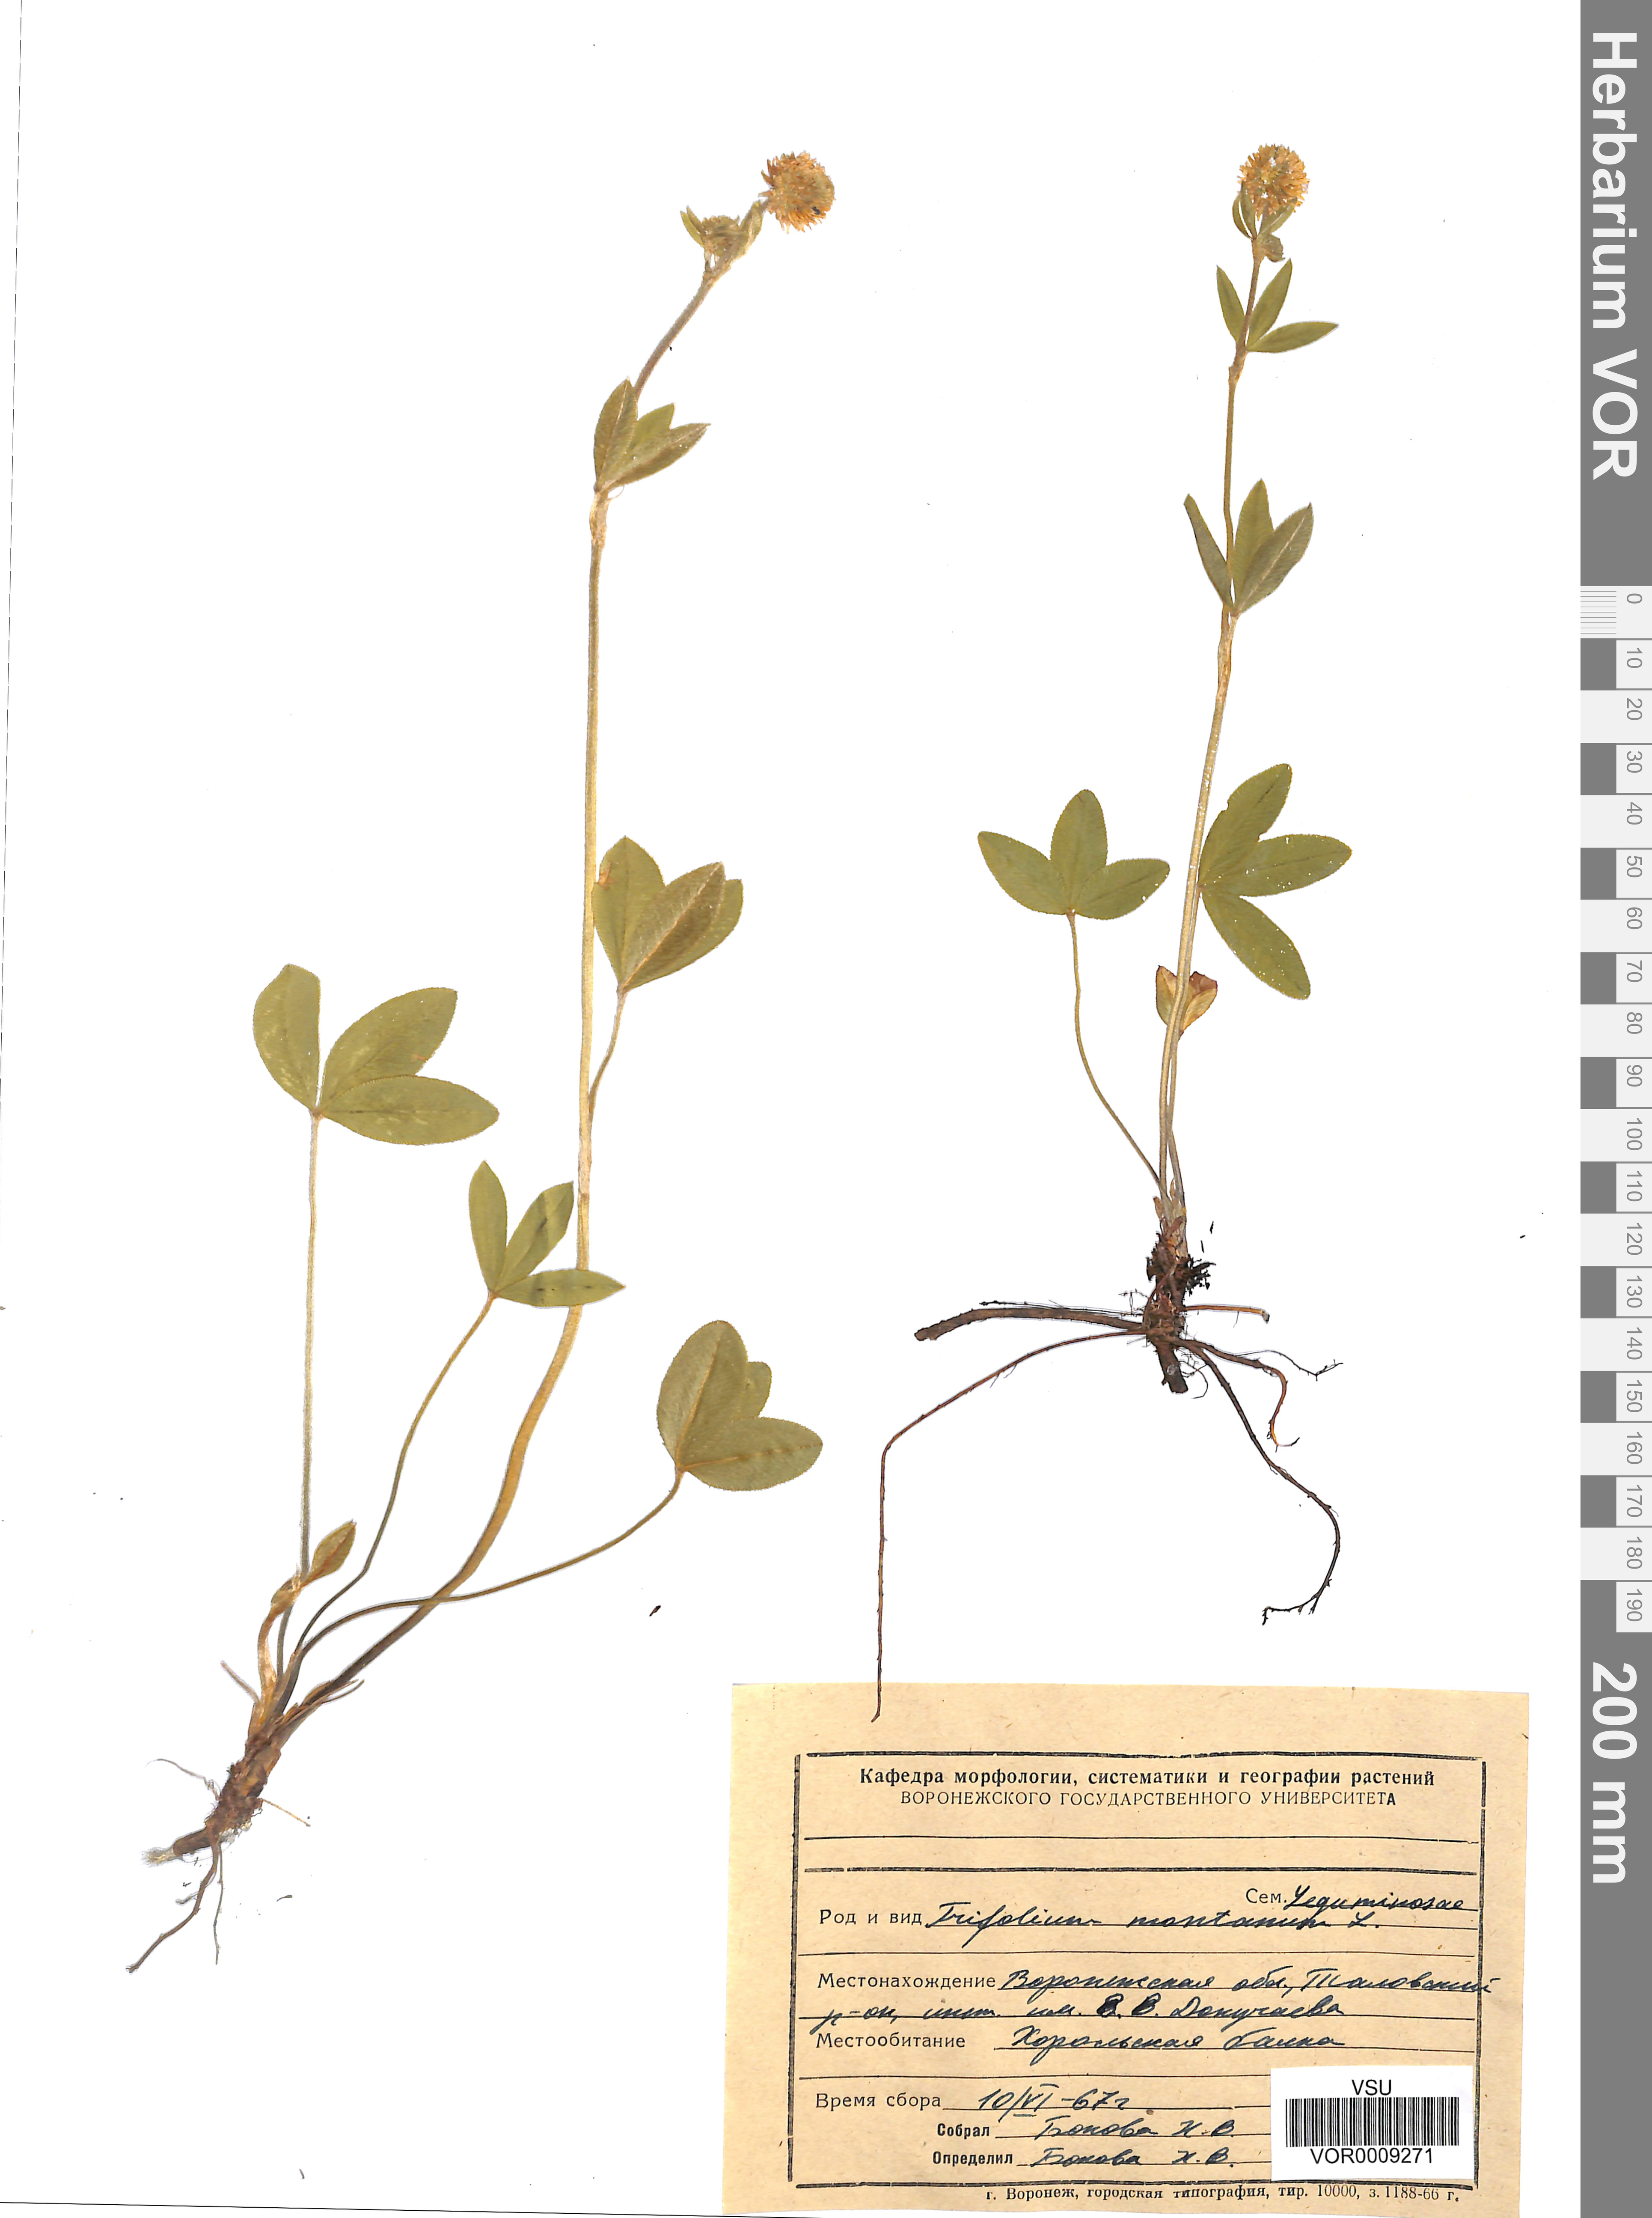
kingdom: Plantae
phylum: Tracheophyta
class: Magnoliopsida
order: Fabales
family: Fabaceae
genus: Trifolium
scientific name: Trifolium montanum
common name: Mountain clover
